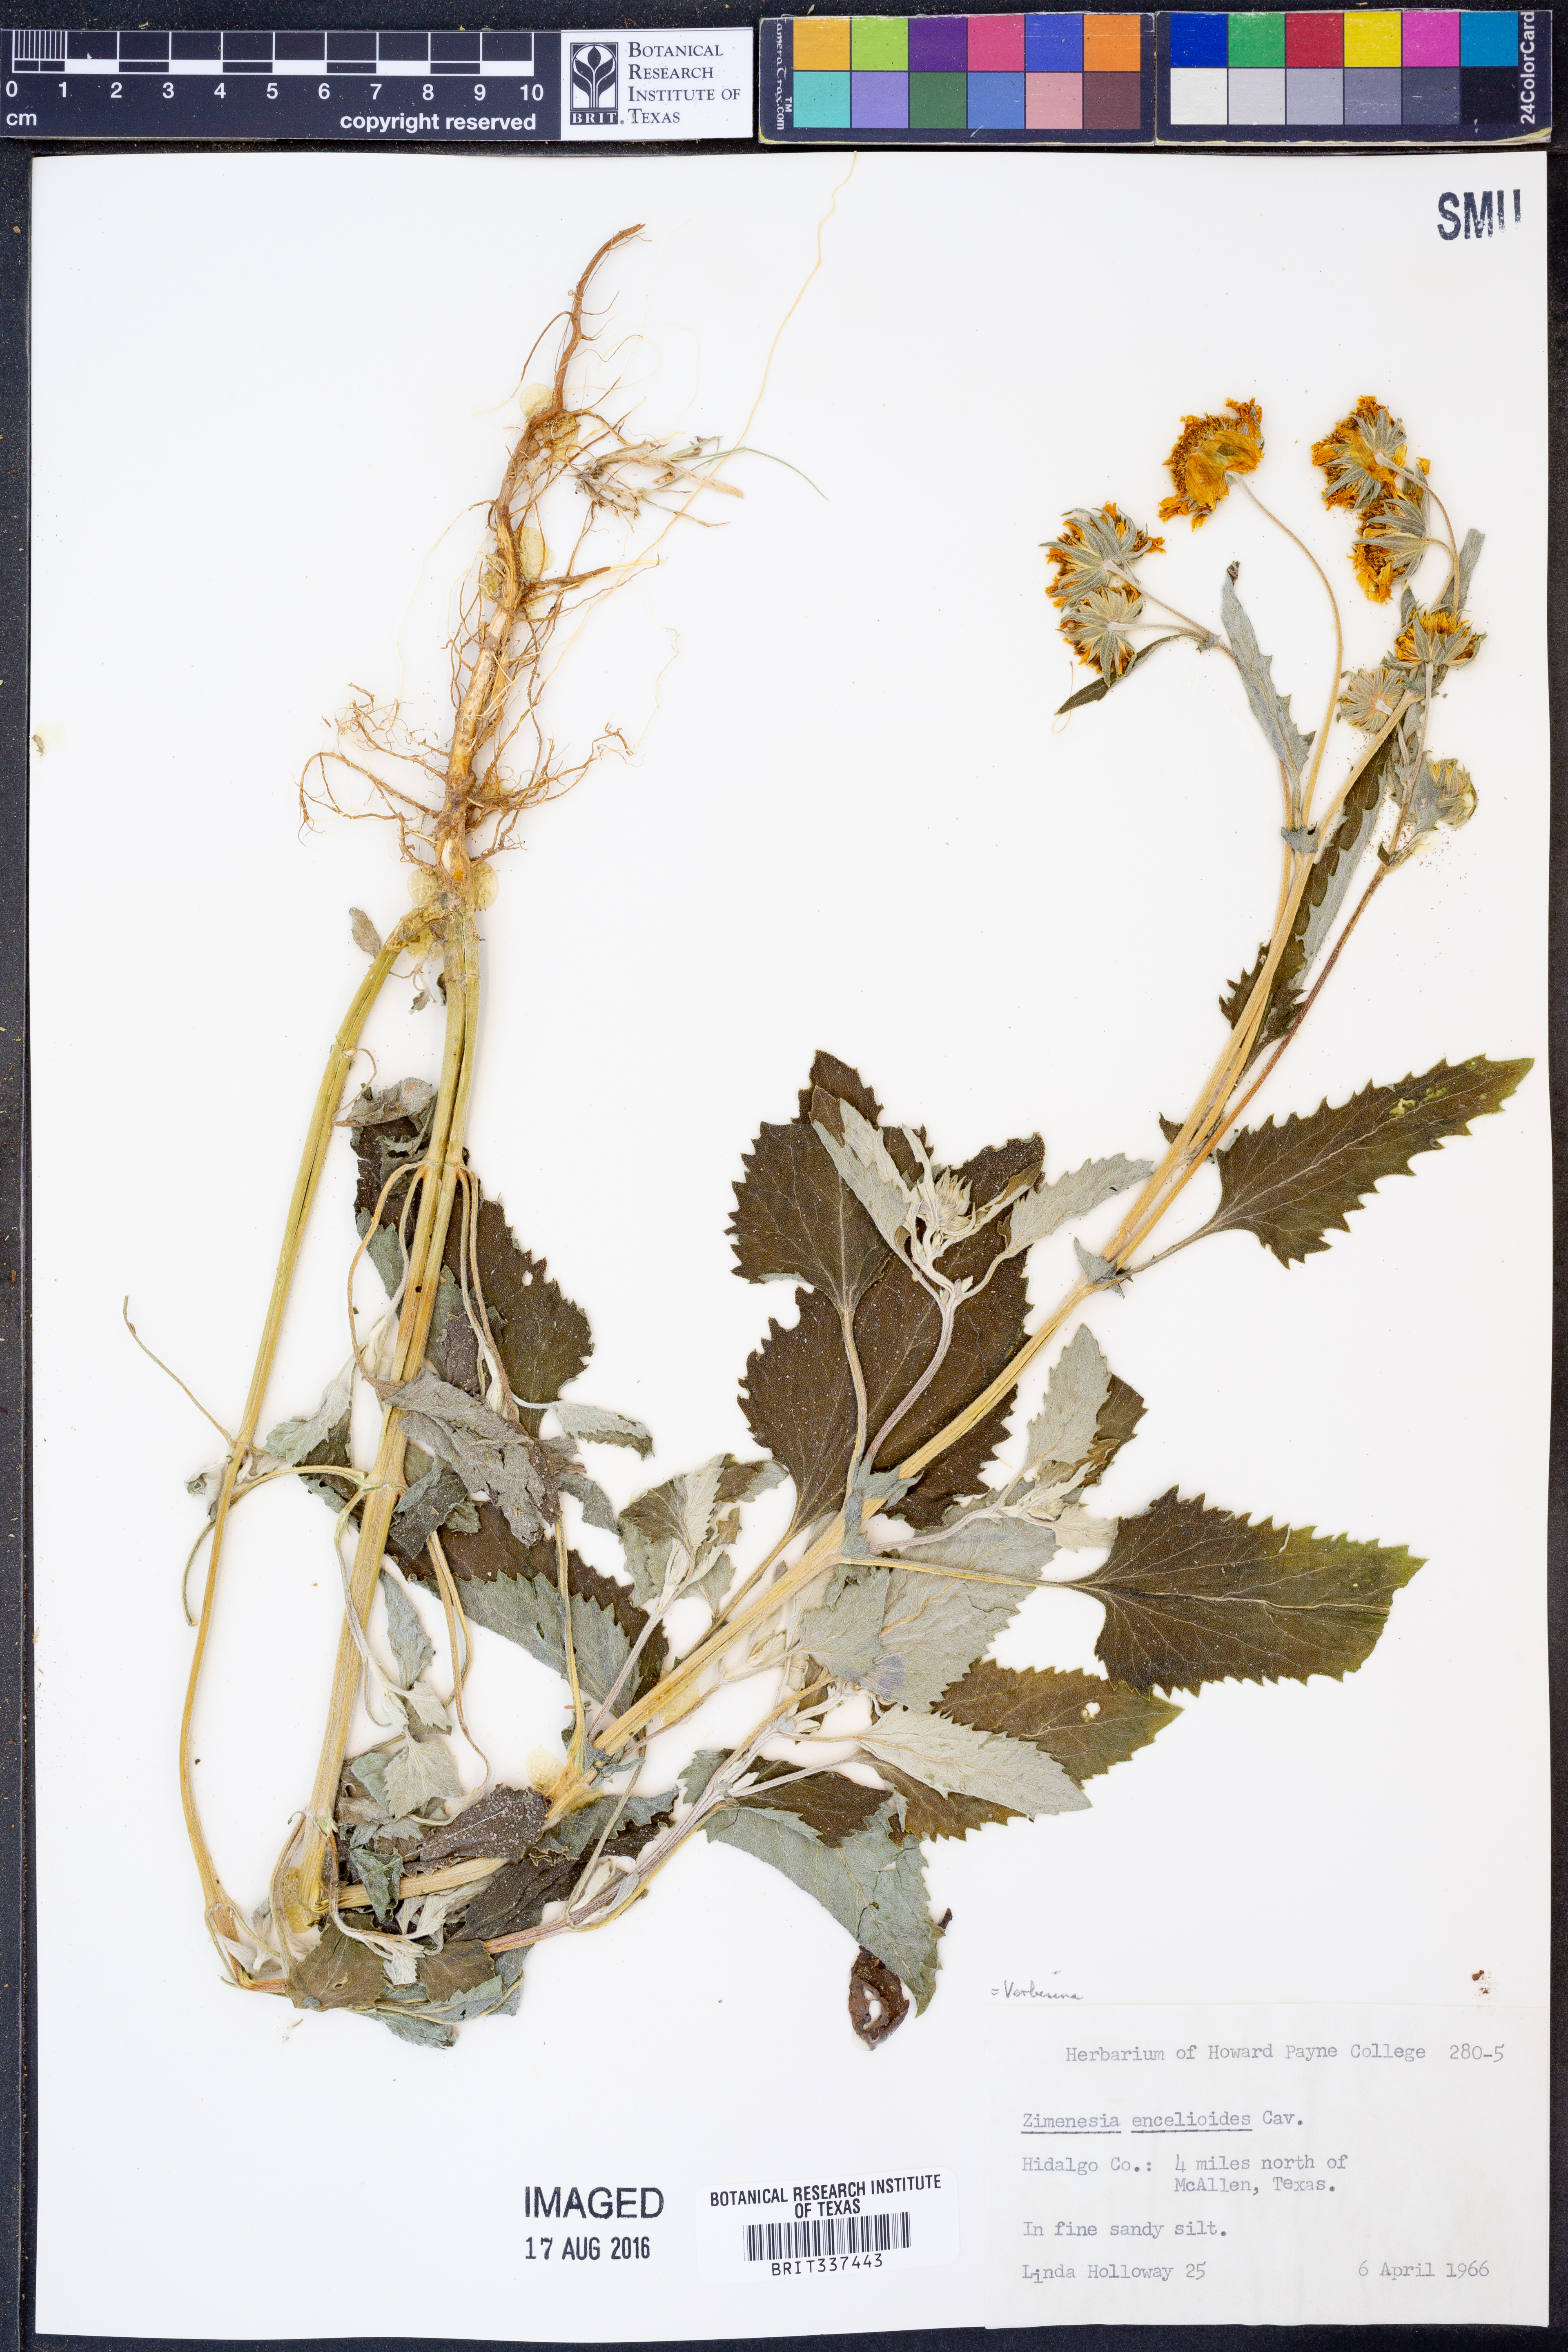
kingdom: Plantae
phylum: Tracheophyta
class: Magnoliopsida
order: Asterales
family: Asteraceae
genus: Verbesina
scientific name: Verbesina encelioides
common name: Golden crownbeard
